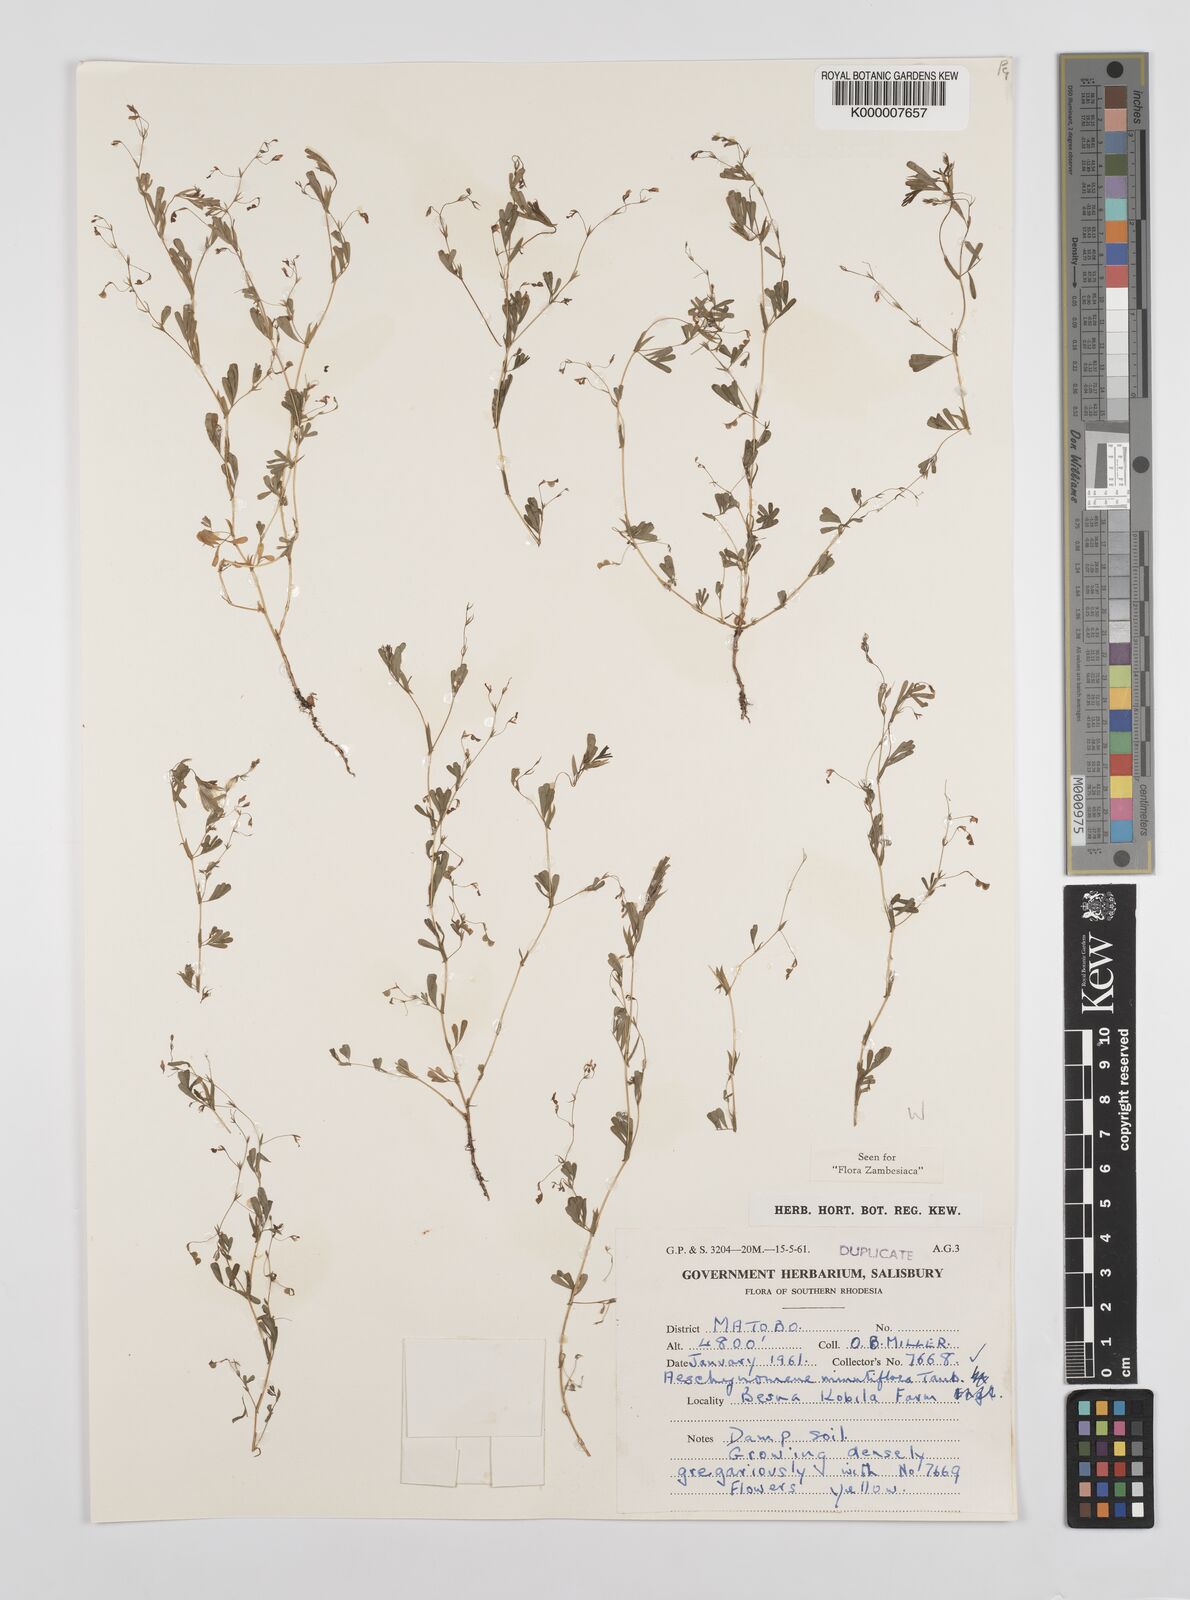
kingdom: Plantae
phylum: Tracheophyta
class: Magnoliopsida
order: Fabales
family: Fabaceae
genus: Aeschynomene
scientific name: Aeschynomene minutiflora
